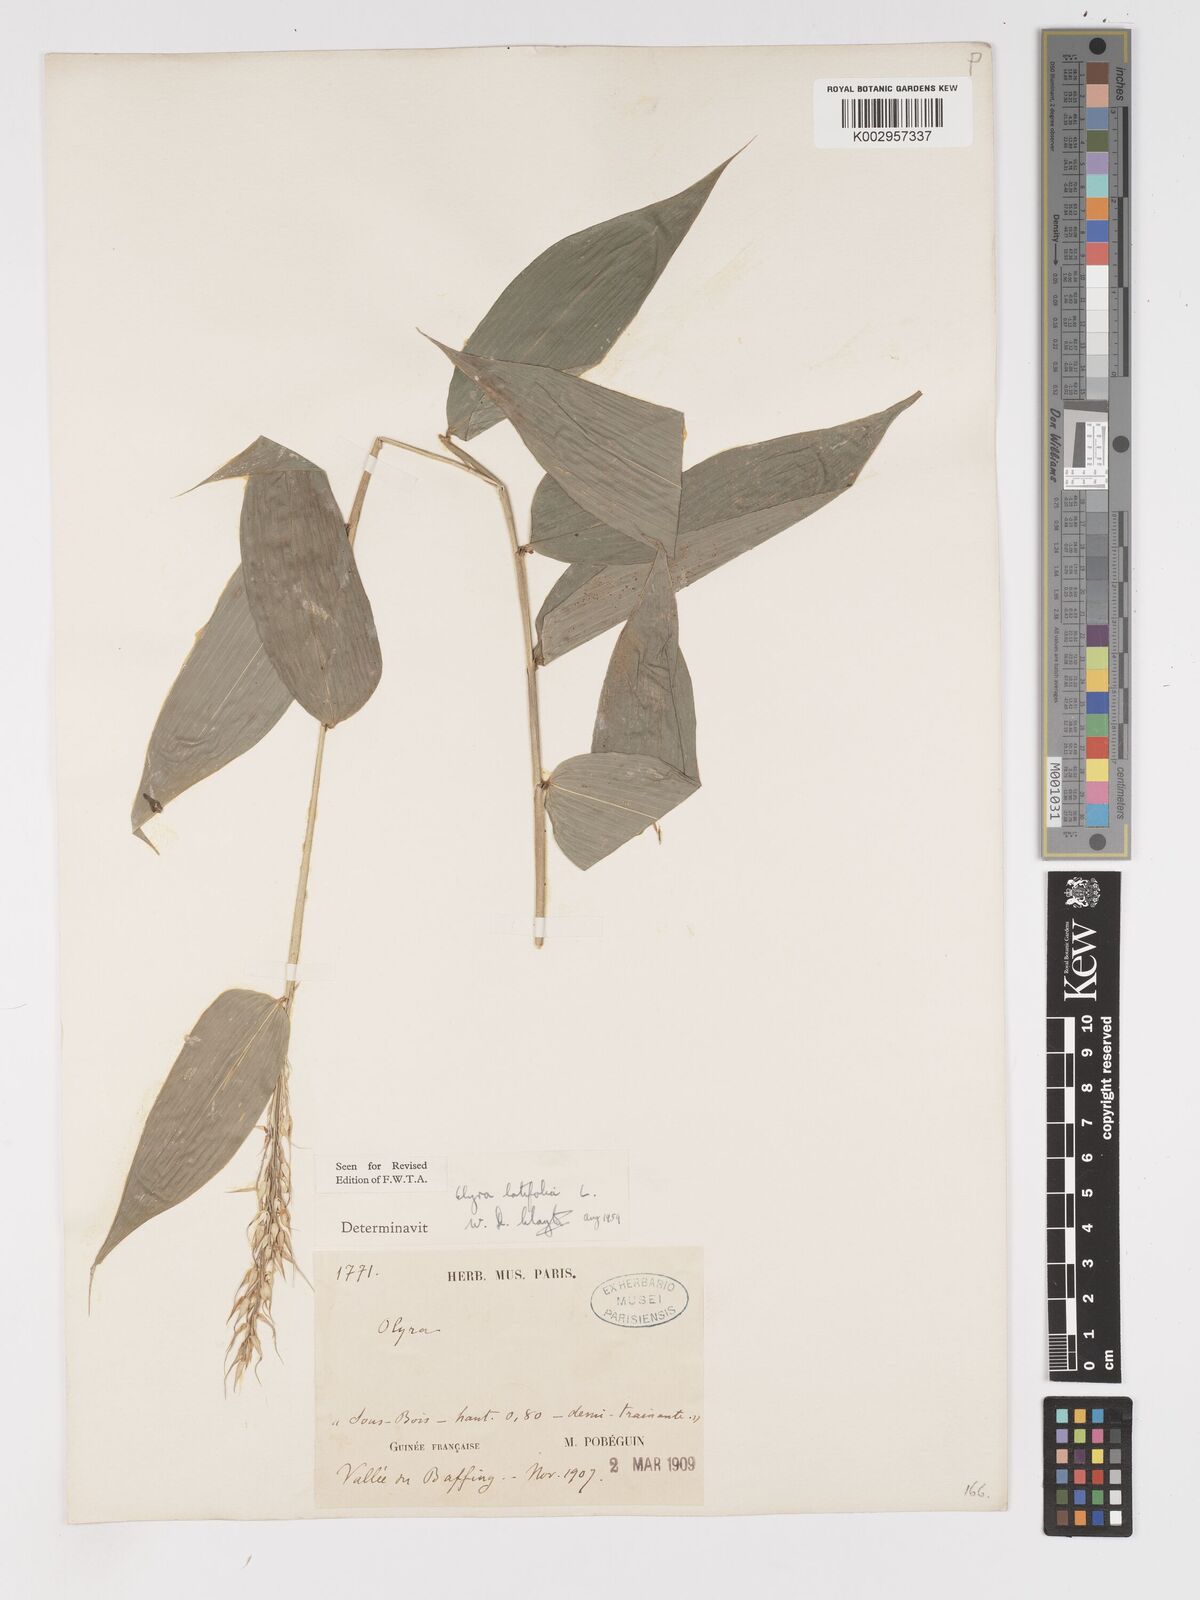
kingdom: Plantae
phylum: Tracheophyta
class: Liliopsida
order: Poales
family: Poaceae
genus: Olyra
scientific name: Olyra latifolia
